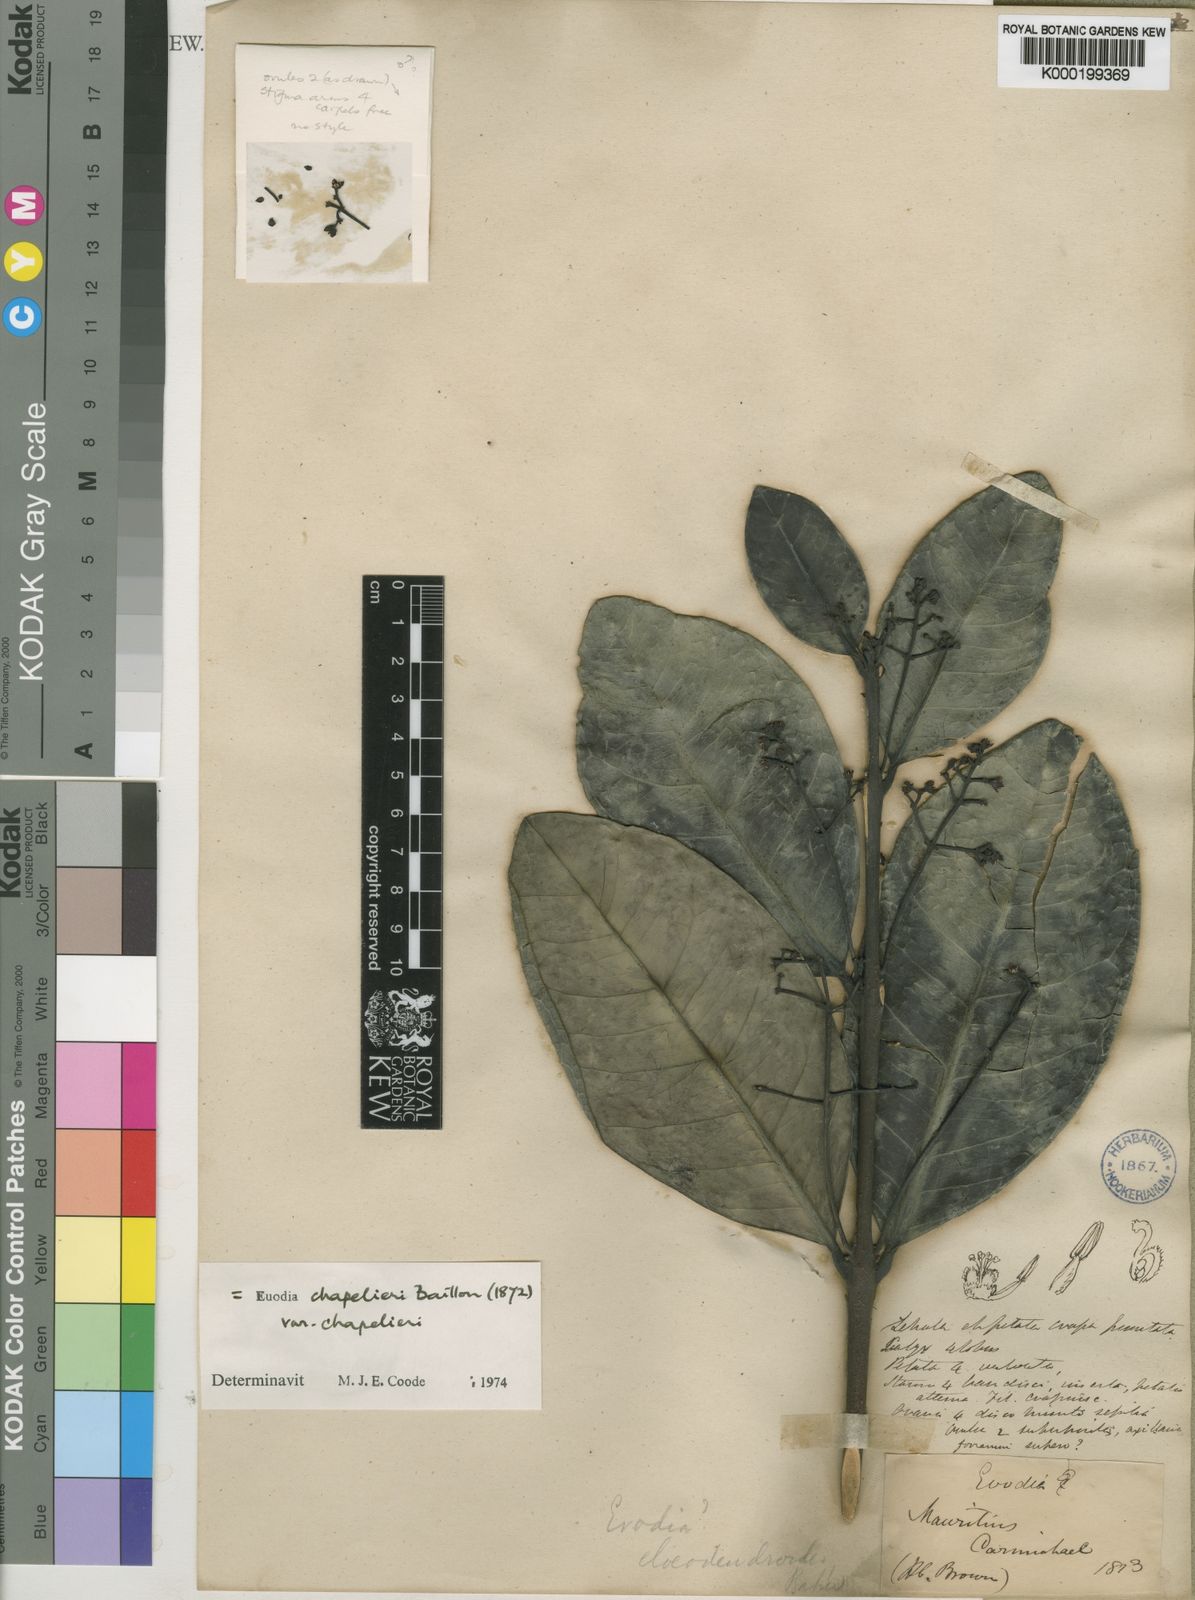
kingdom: Plantae
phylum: Tracheophyta
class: Magnoliopsida
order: Sapindales
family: Rutaceae
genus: Melicope
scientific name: Melicope chapelieri
